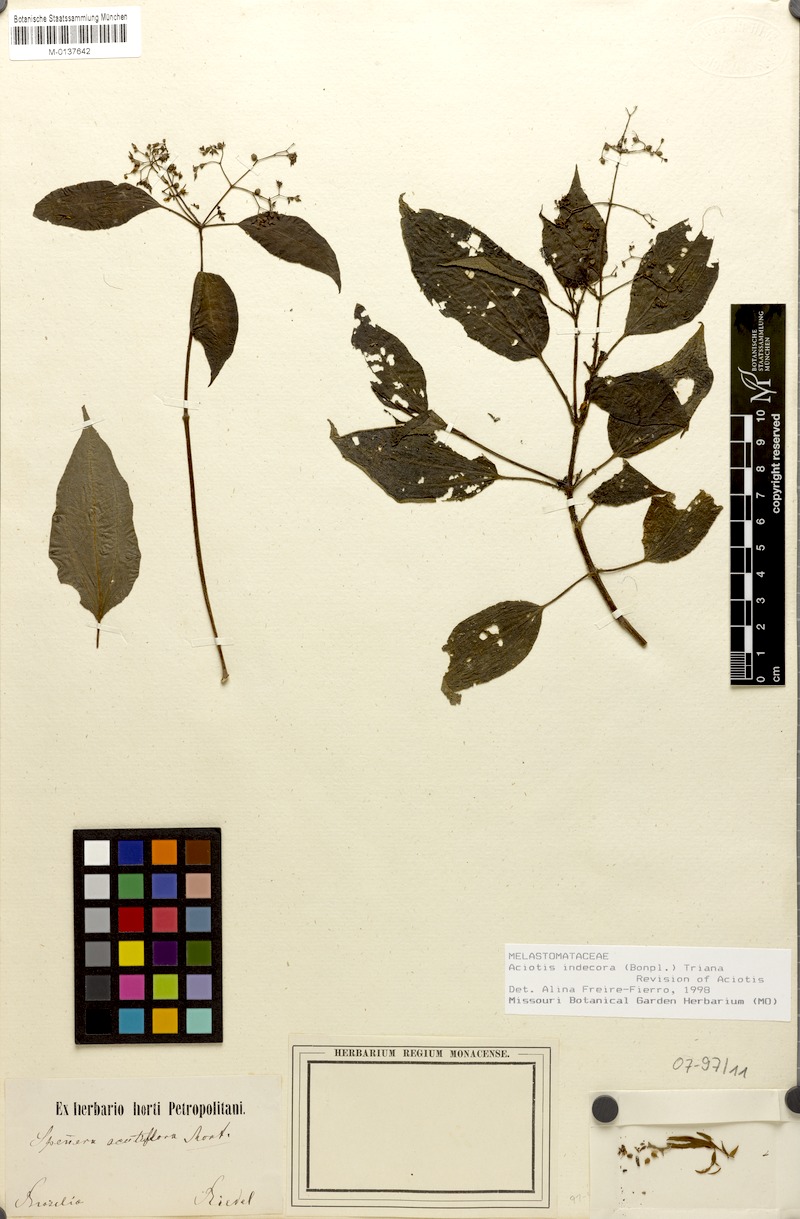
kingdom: Plantae
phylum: Tracheophyta
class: Magnoliopsida
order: Myrtales
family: Melastomataceae
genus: Aciotis
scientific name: Aciotis indecora
